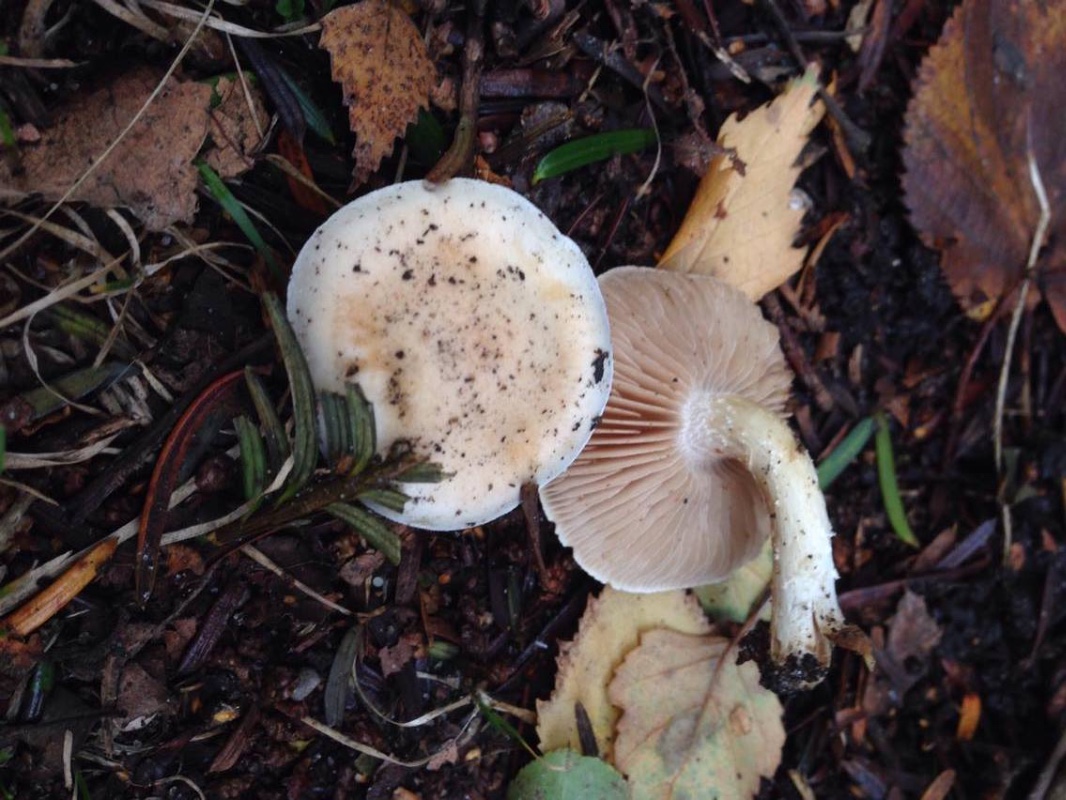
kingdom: Fungi
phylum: Basidiomycota
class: Agaricomycetes
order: Agaricales
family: Hymenogastraceae
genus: Hebeloma
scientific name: Hebeloma album
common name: skør tåreblad
